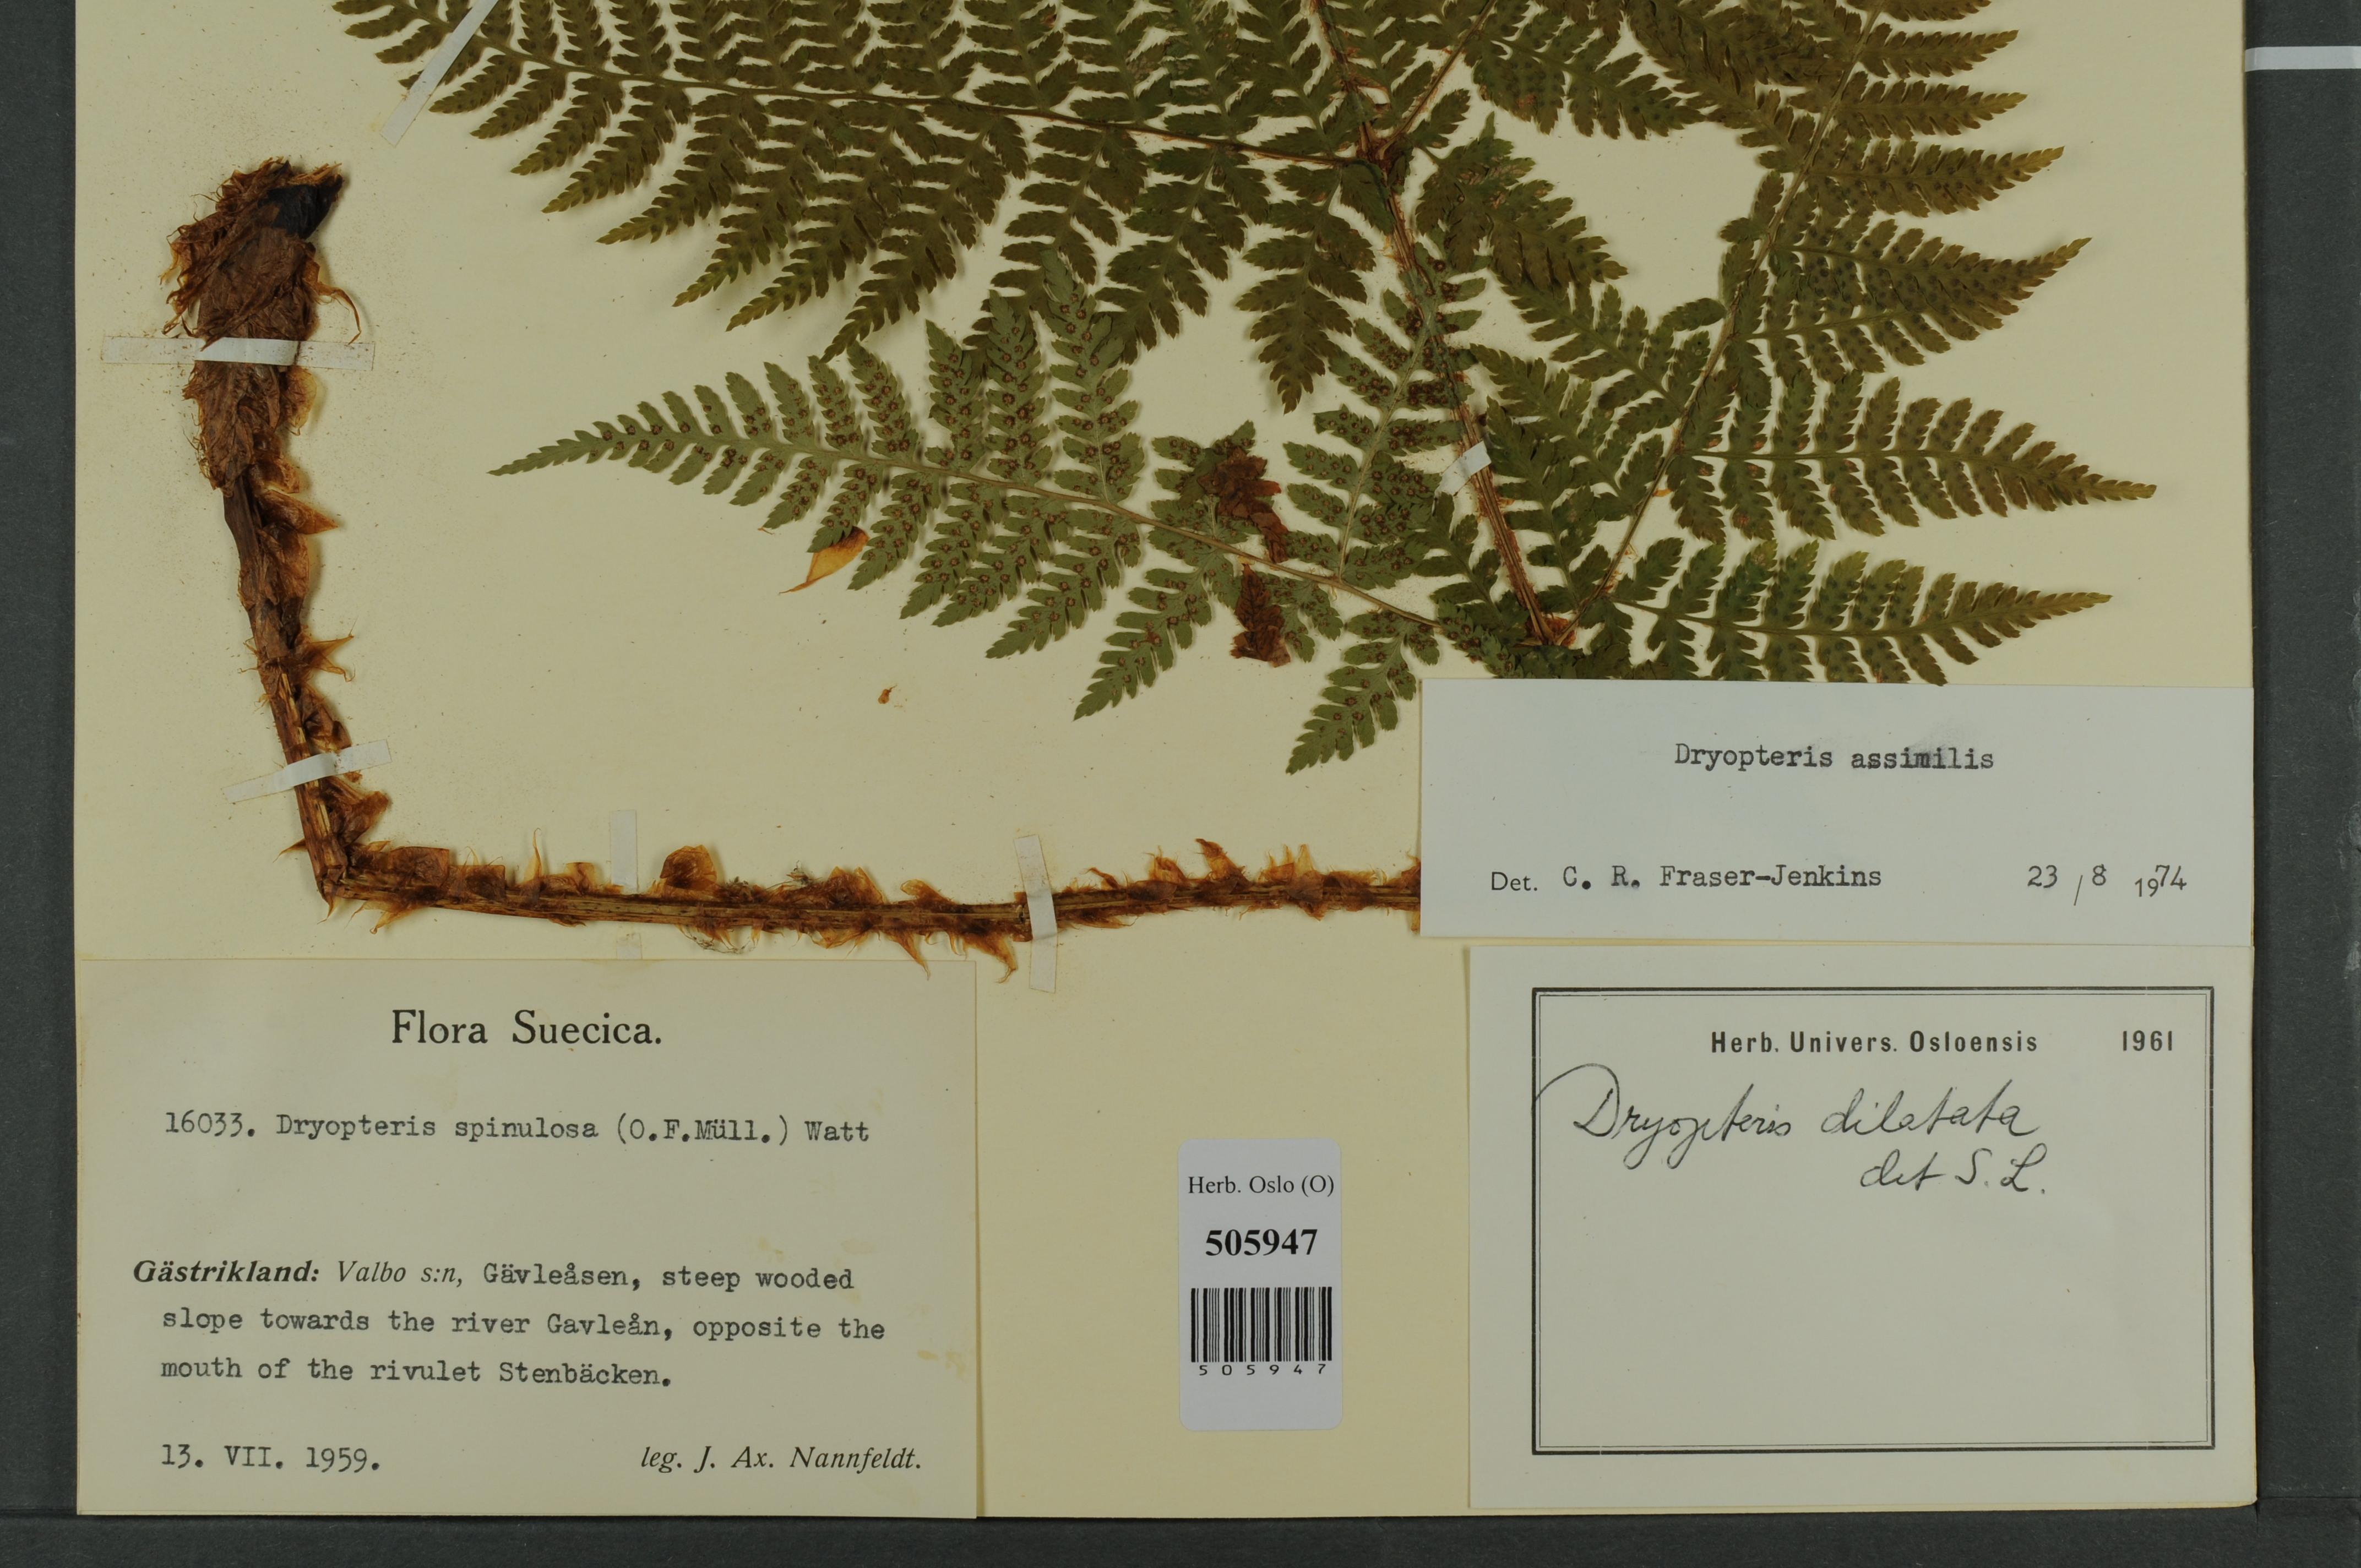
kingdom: Plantae
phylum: Tracheophyta
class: Polypodiopsida
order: Polypodiales
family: Dryopteridaceae
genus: Dryopteris
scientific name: Dryopteris expansa
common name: Northern buckler fern
